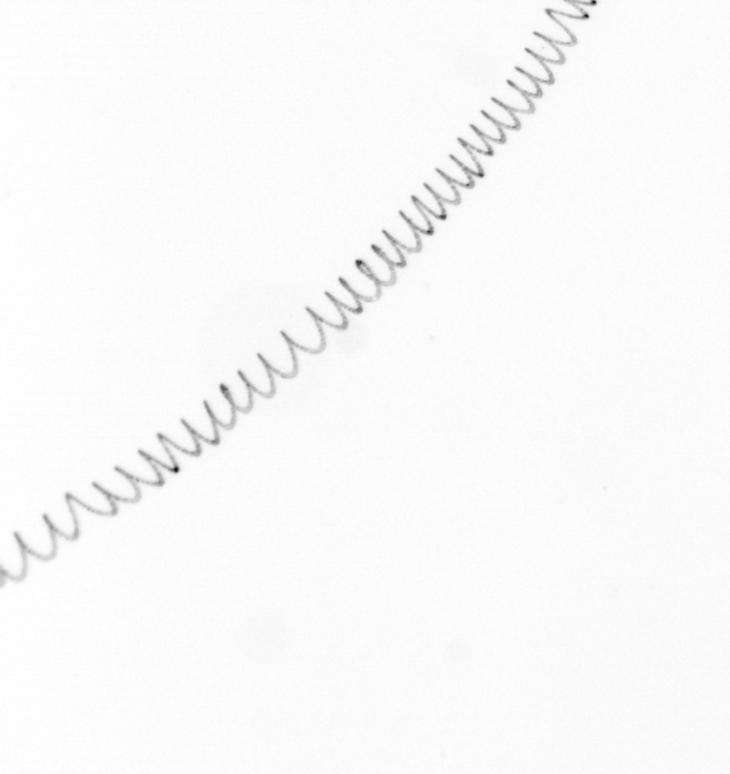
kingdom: Chromista
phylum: Ochrophyta
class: Bacillariophyceae
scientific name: Bacillariophyceae
